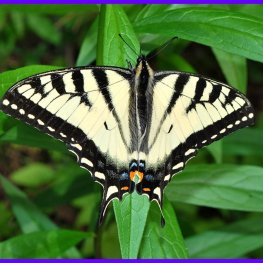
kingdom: Animalia
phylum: Arthropoda
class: Insecta
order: Lepidoptera
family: Papilionidae
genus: Pterourus
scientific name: Pterourus canadensis
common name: Canadian Tiger Swallowtail
